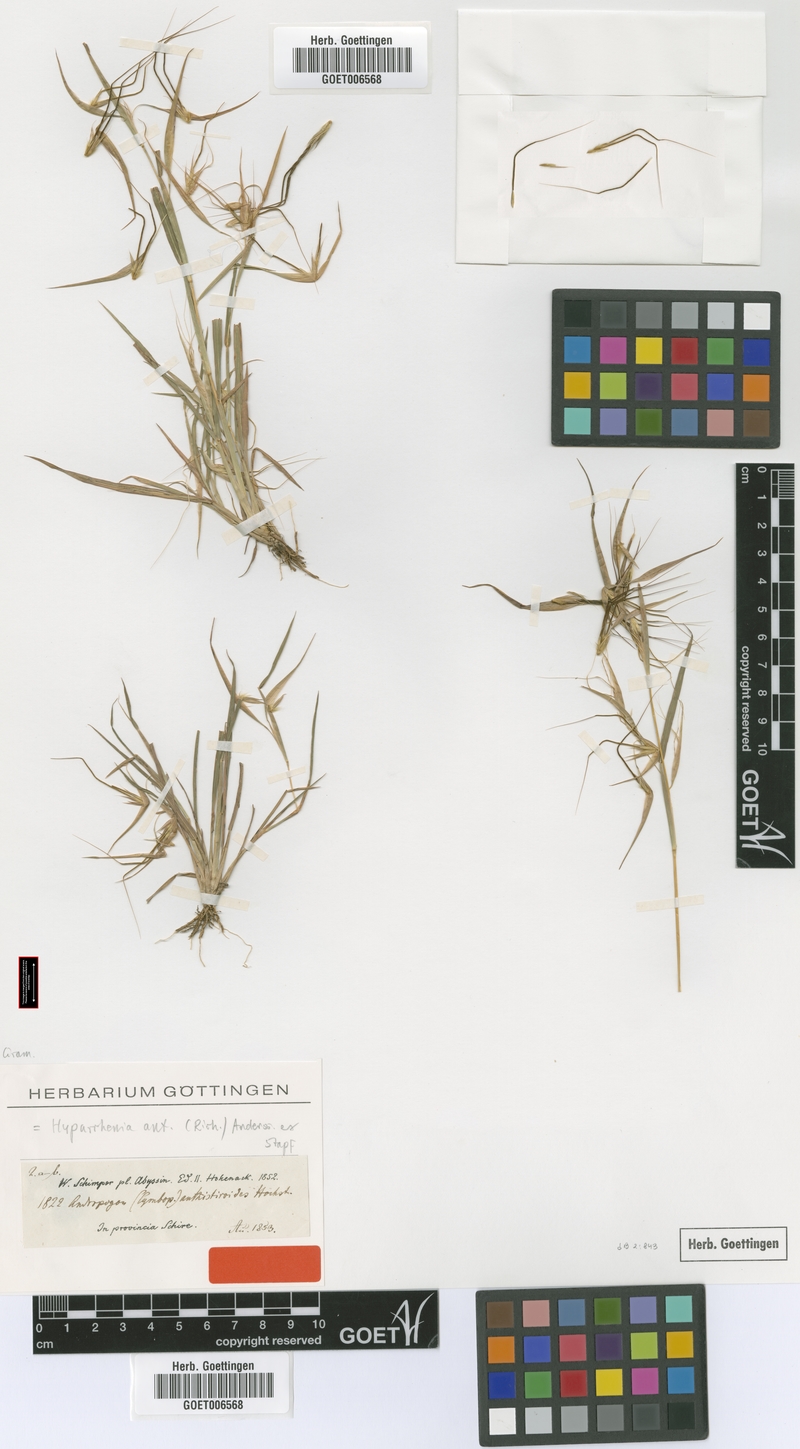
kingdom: Plantae
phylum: Tracheophyta
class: Liliopsida
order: Poales
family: Poaceae
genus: Hyparrhenia
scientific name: Hyparrhenia anthistirioides
